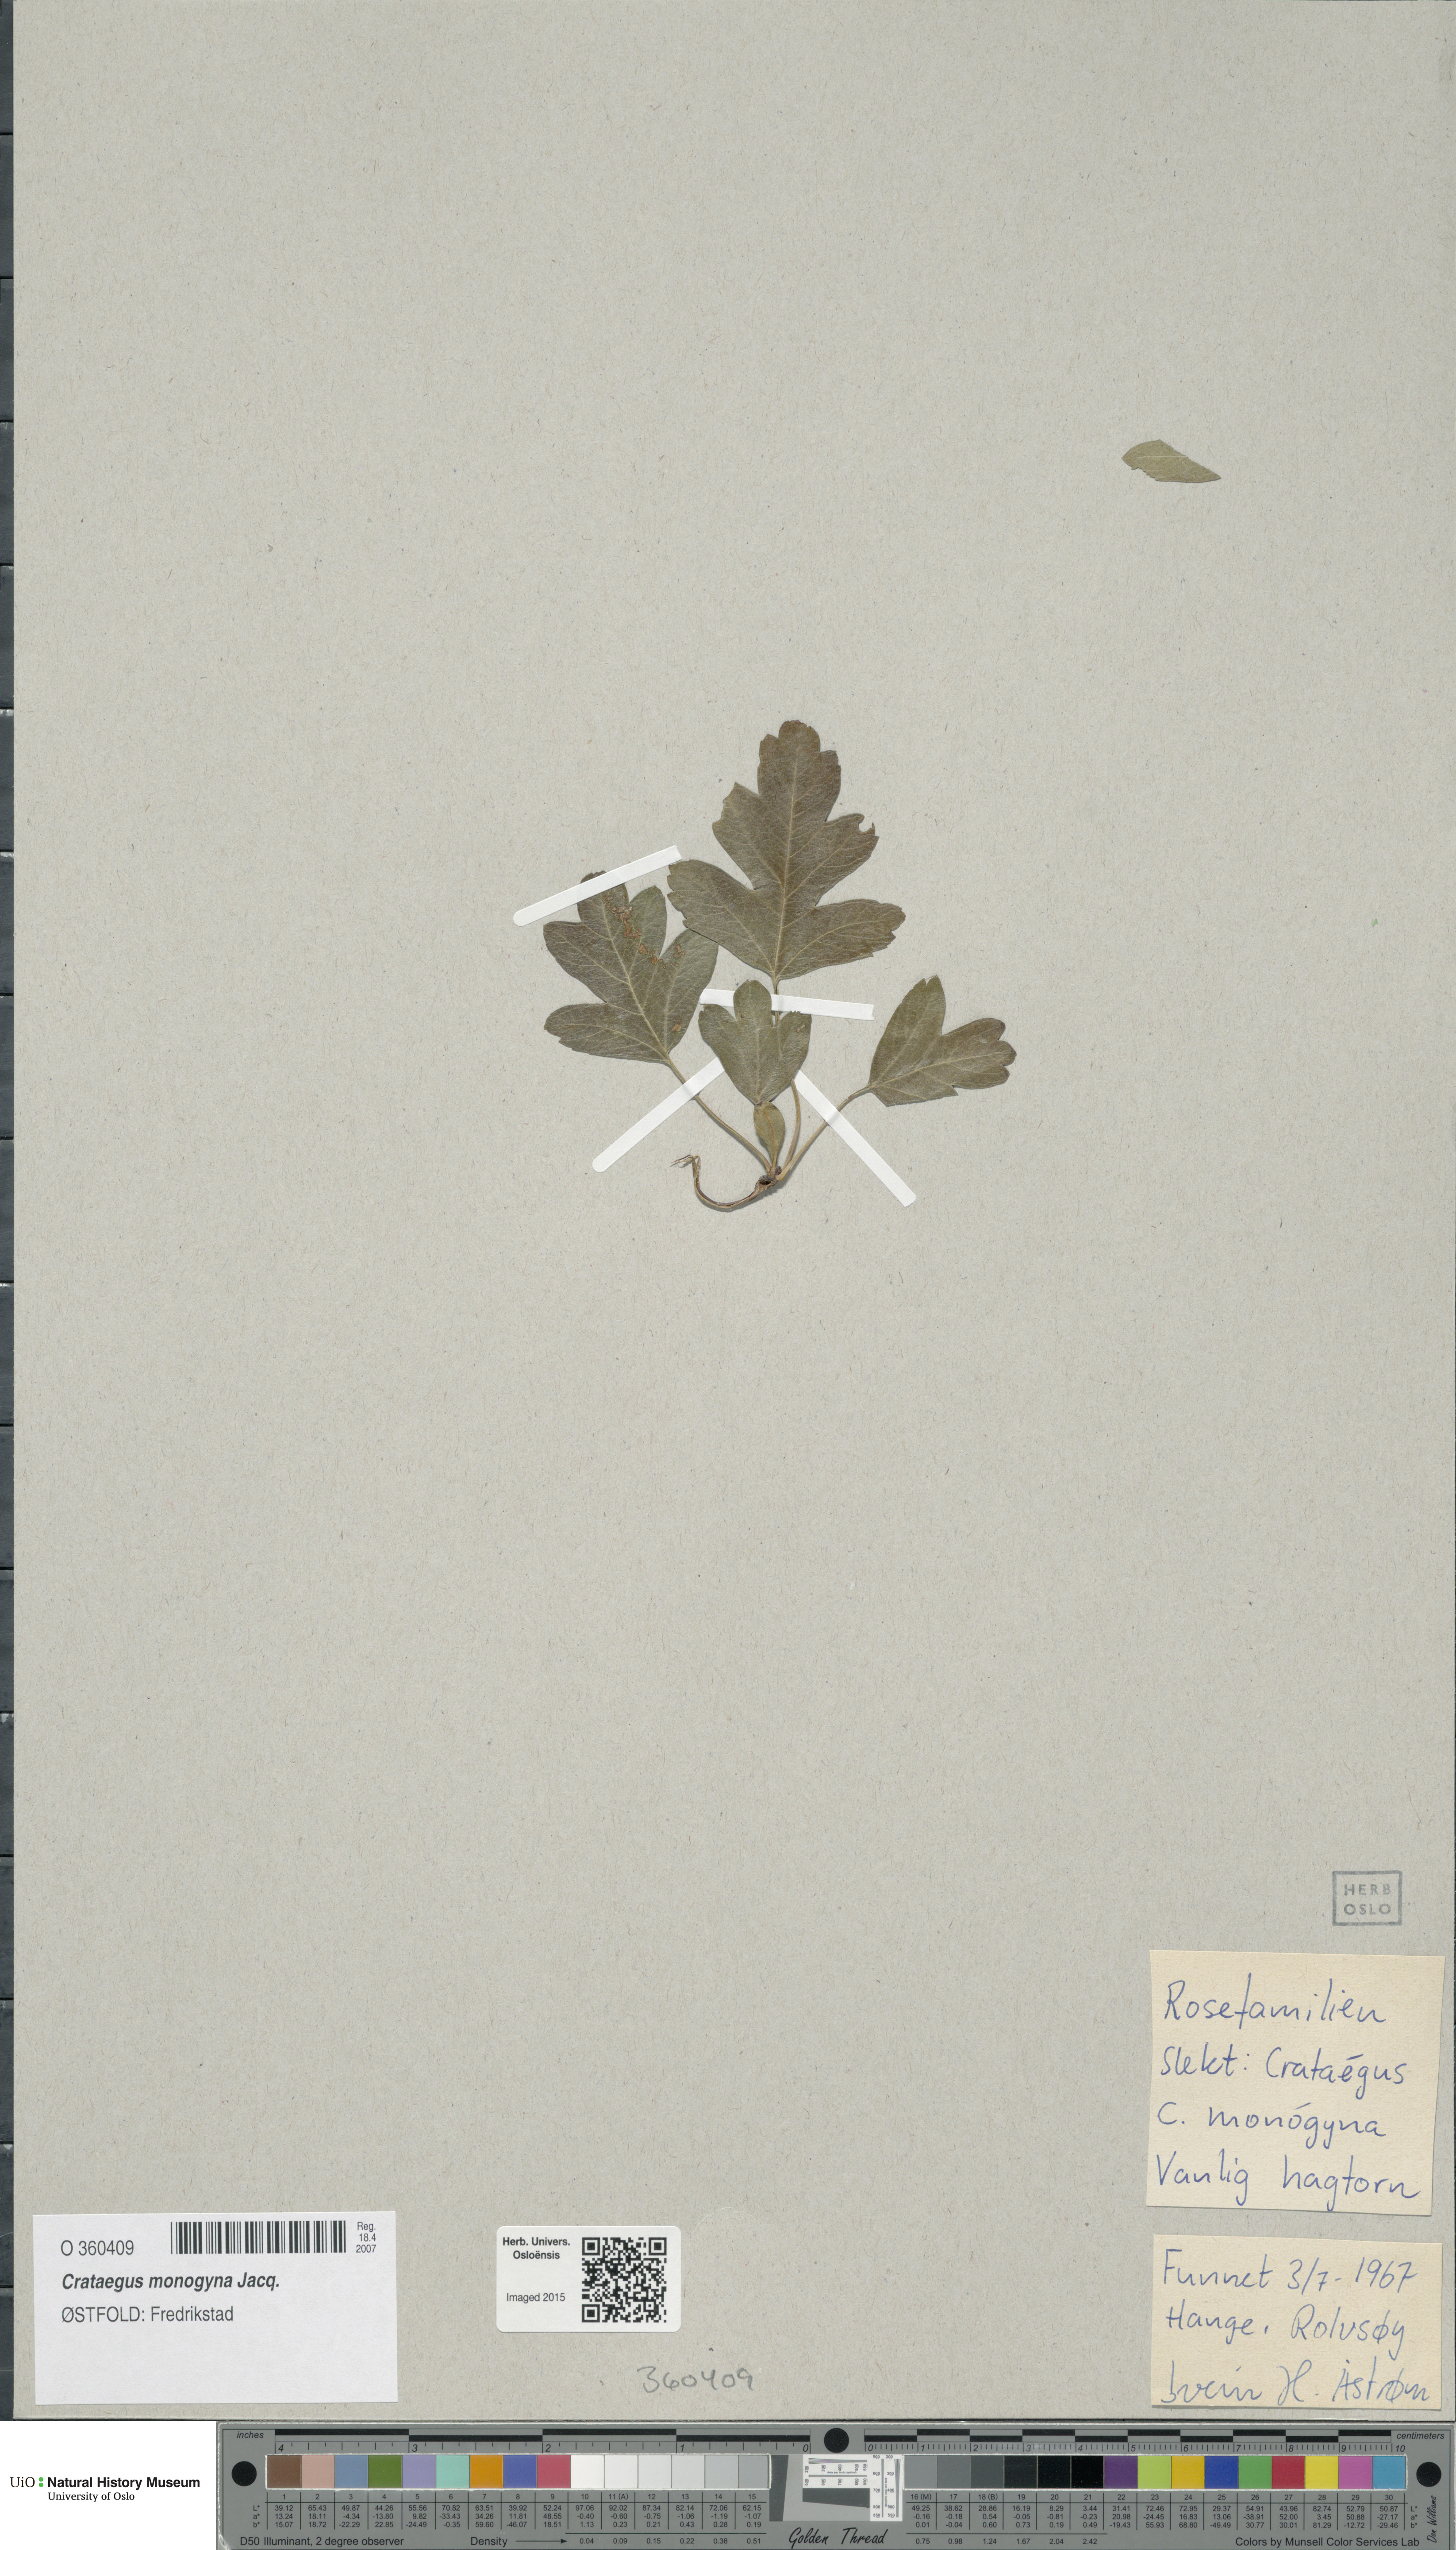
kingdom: Plantae
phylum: Tracheophyta
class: Magnoliopsida
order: Rosales
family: Rosaceae
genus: Crataegus
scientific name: Crataegus monogyna
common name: Hawthorn
